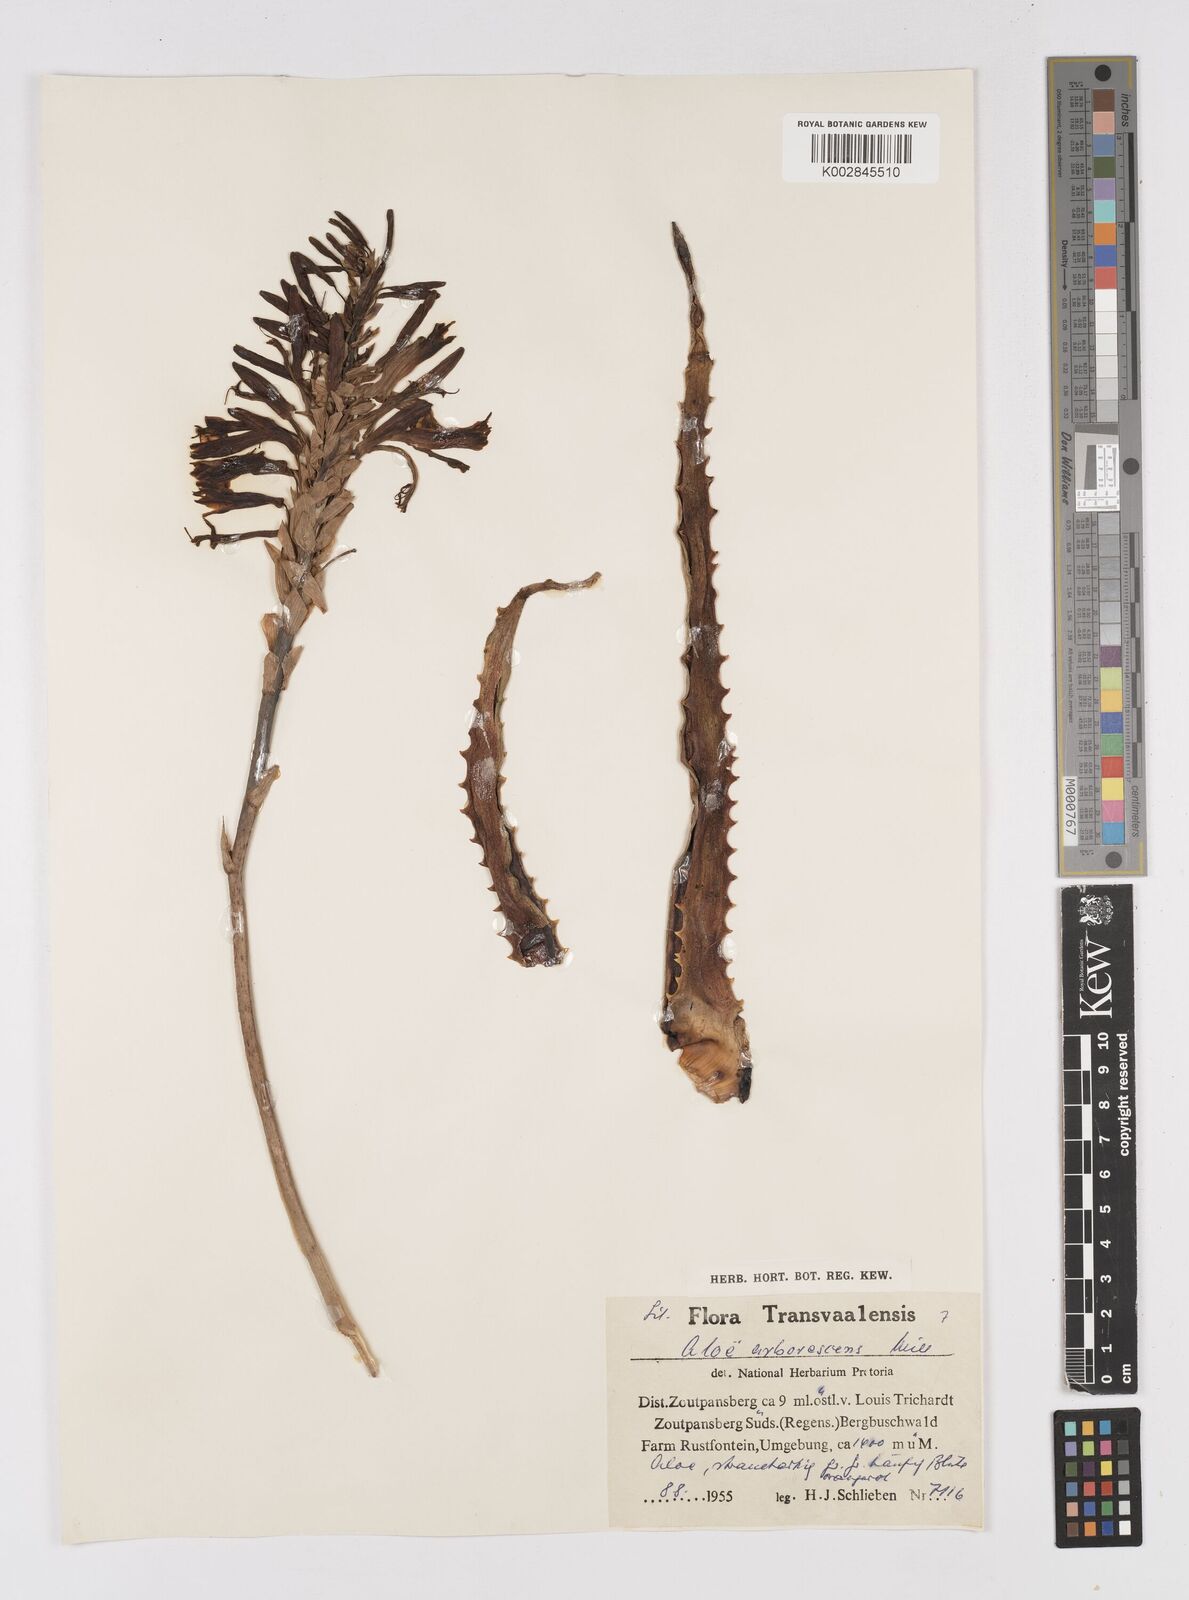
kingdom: Plantae
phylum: Tracheophyta
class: Liliopsida
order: Asparagales
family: Asphodelaceae
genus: Aloe
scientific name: Aloe arborescens
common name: Candelabra aloe
